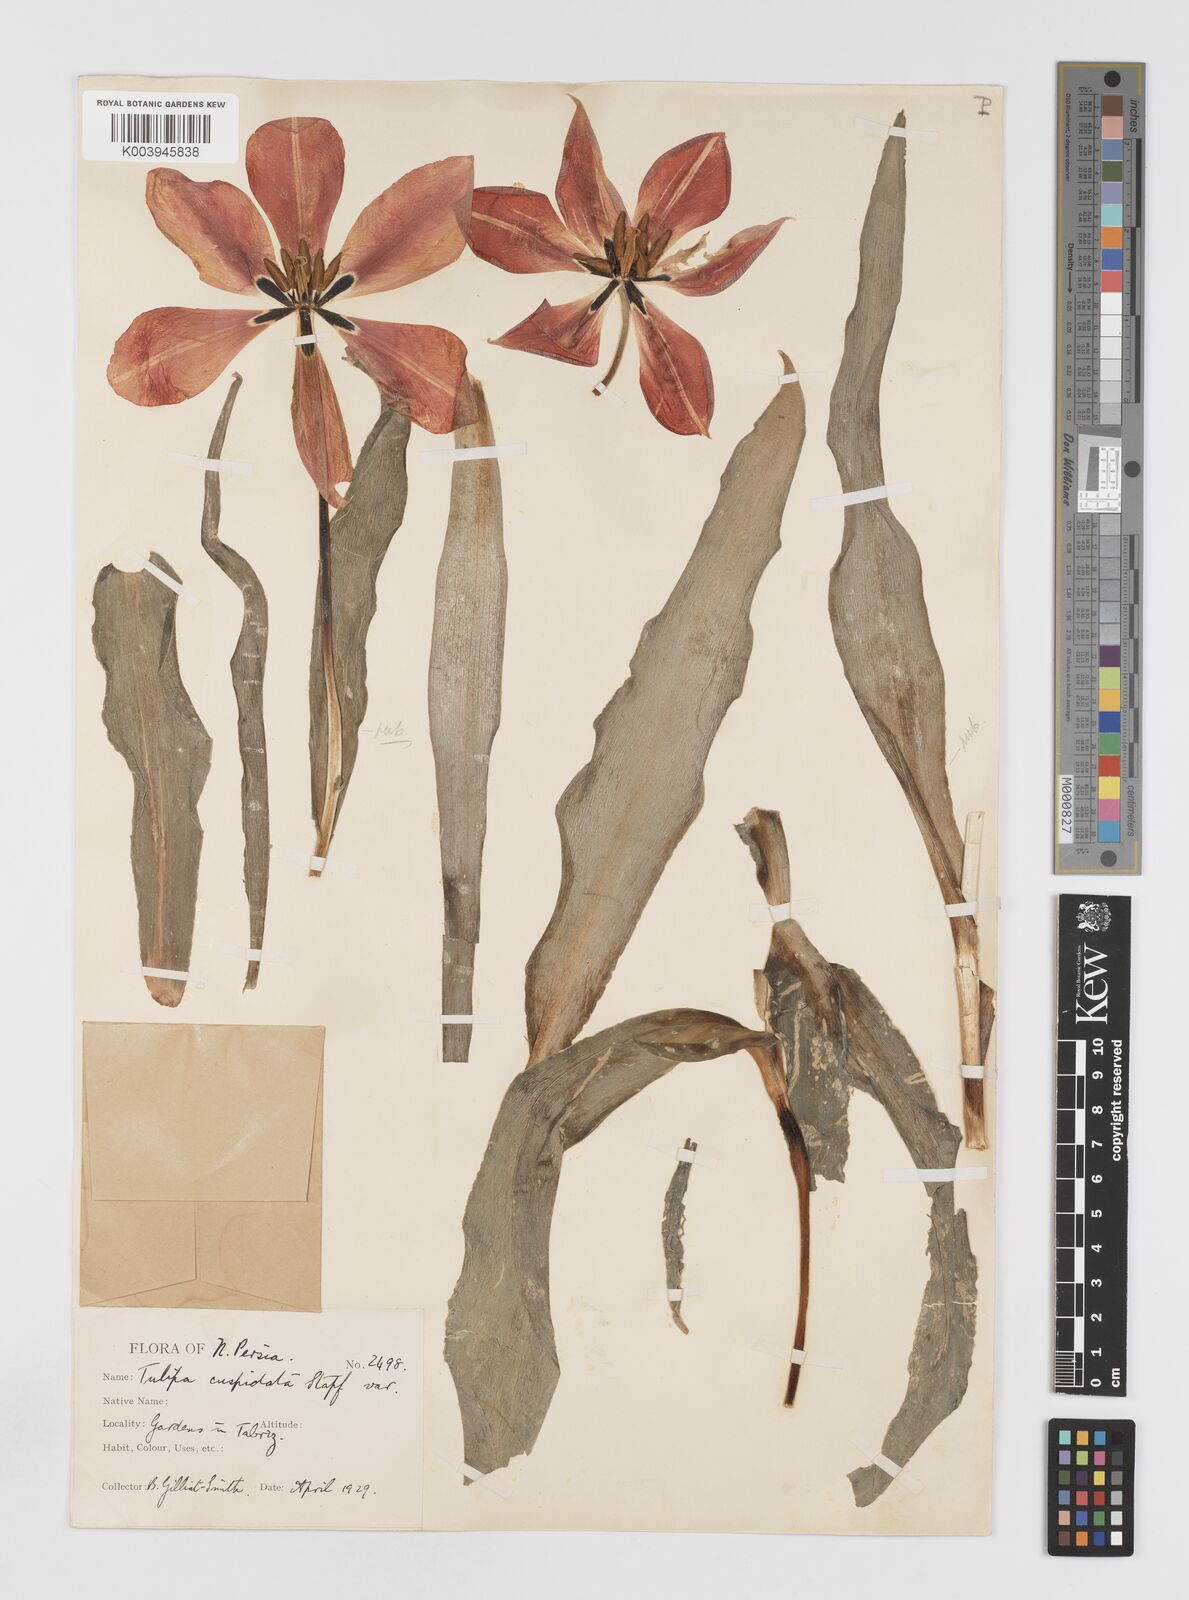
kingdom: Plantae
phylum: Tracheophyta
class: Liliopsida
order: Liliales
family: Liliaceae
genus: Tulipa
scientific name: Tulipa undulatifolia
